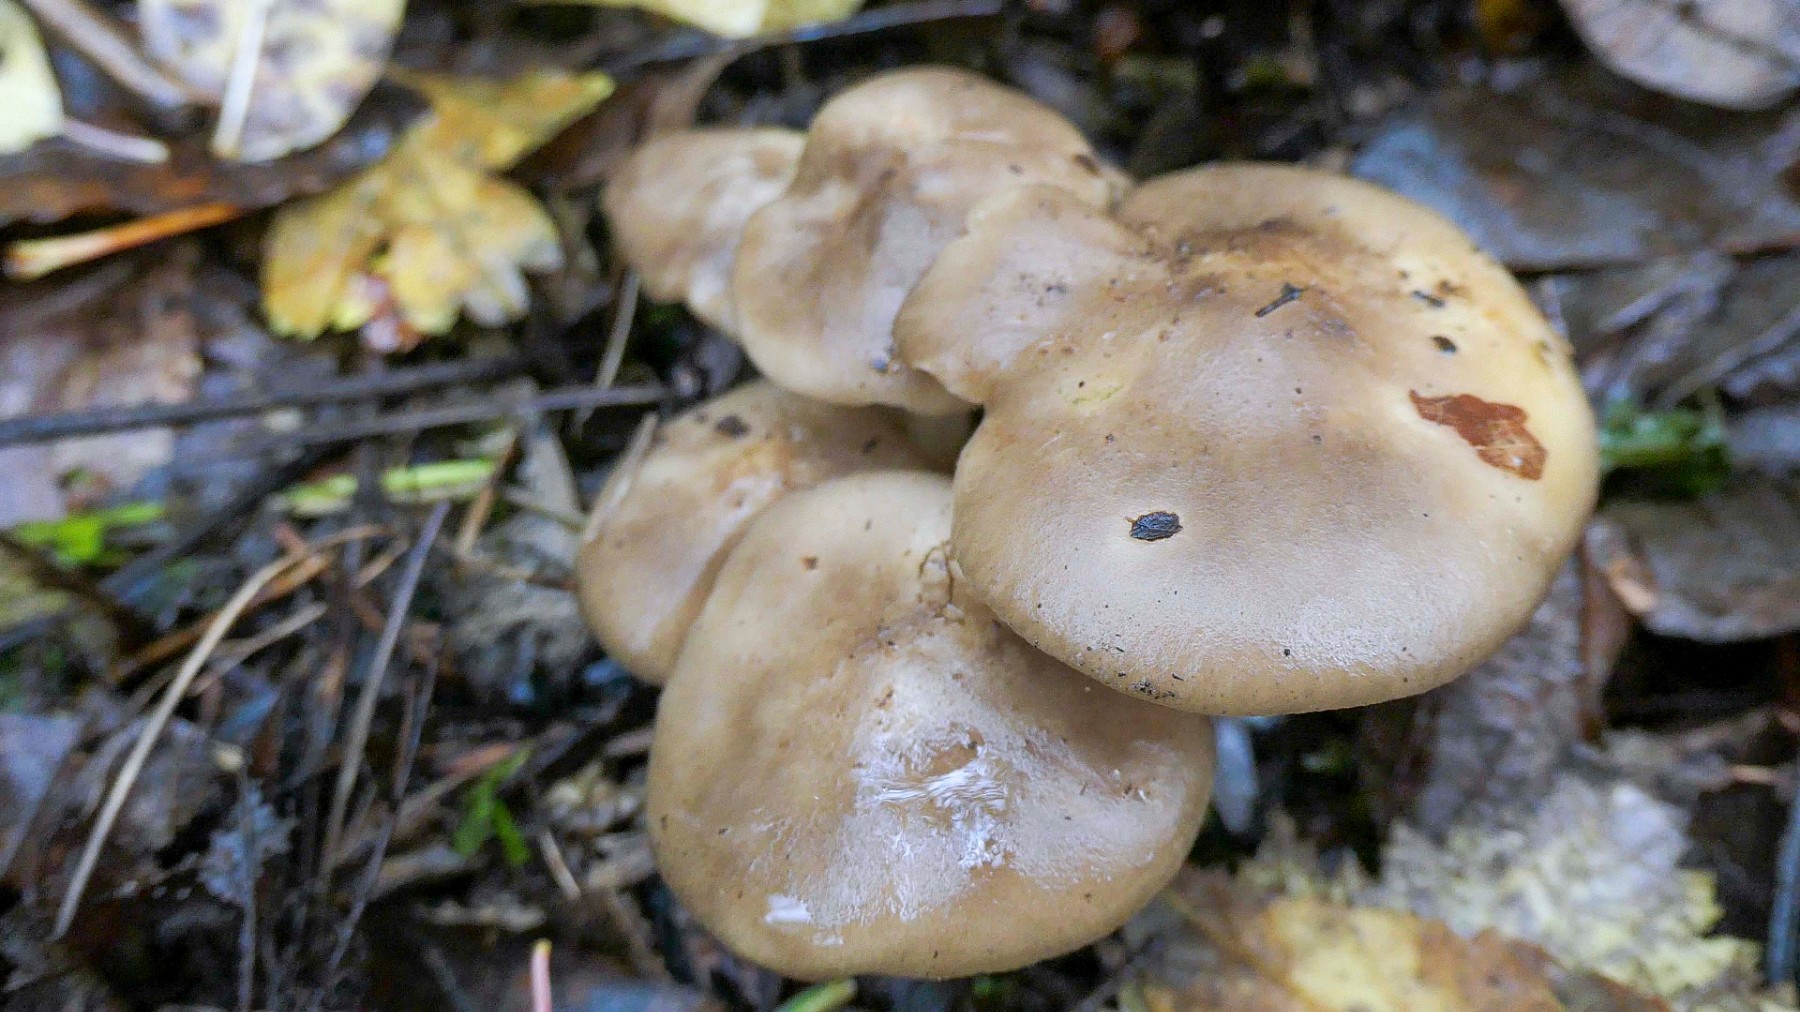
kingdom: Fungi
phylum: Basidiomycota
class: Agaricomycetes
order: Agaricales
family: Lyophyllaceae
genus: Lyophyllum
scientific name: Lyophyllum
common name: gråblad
